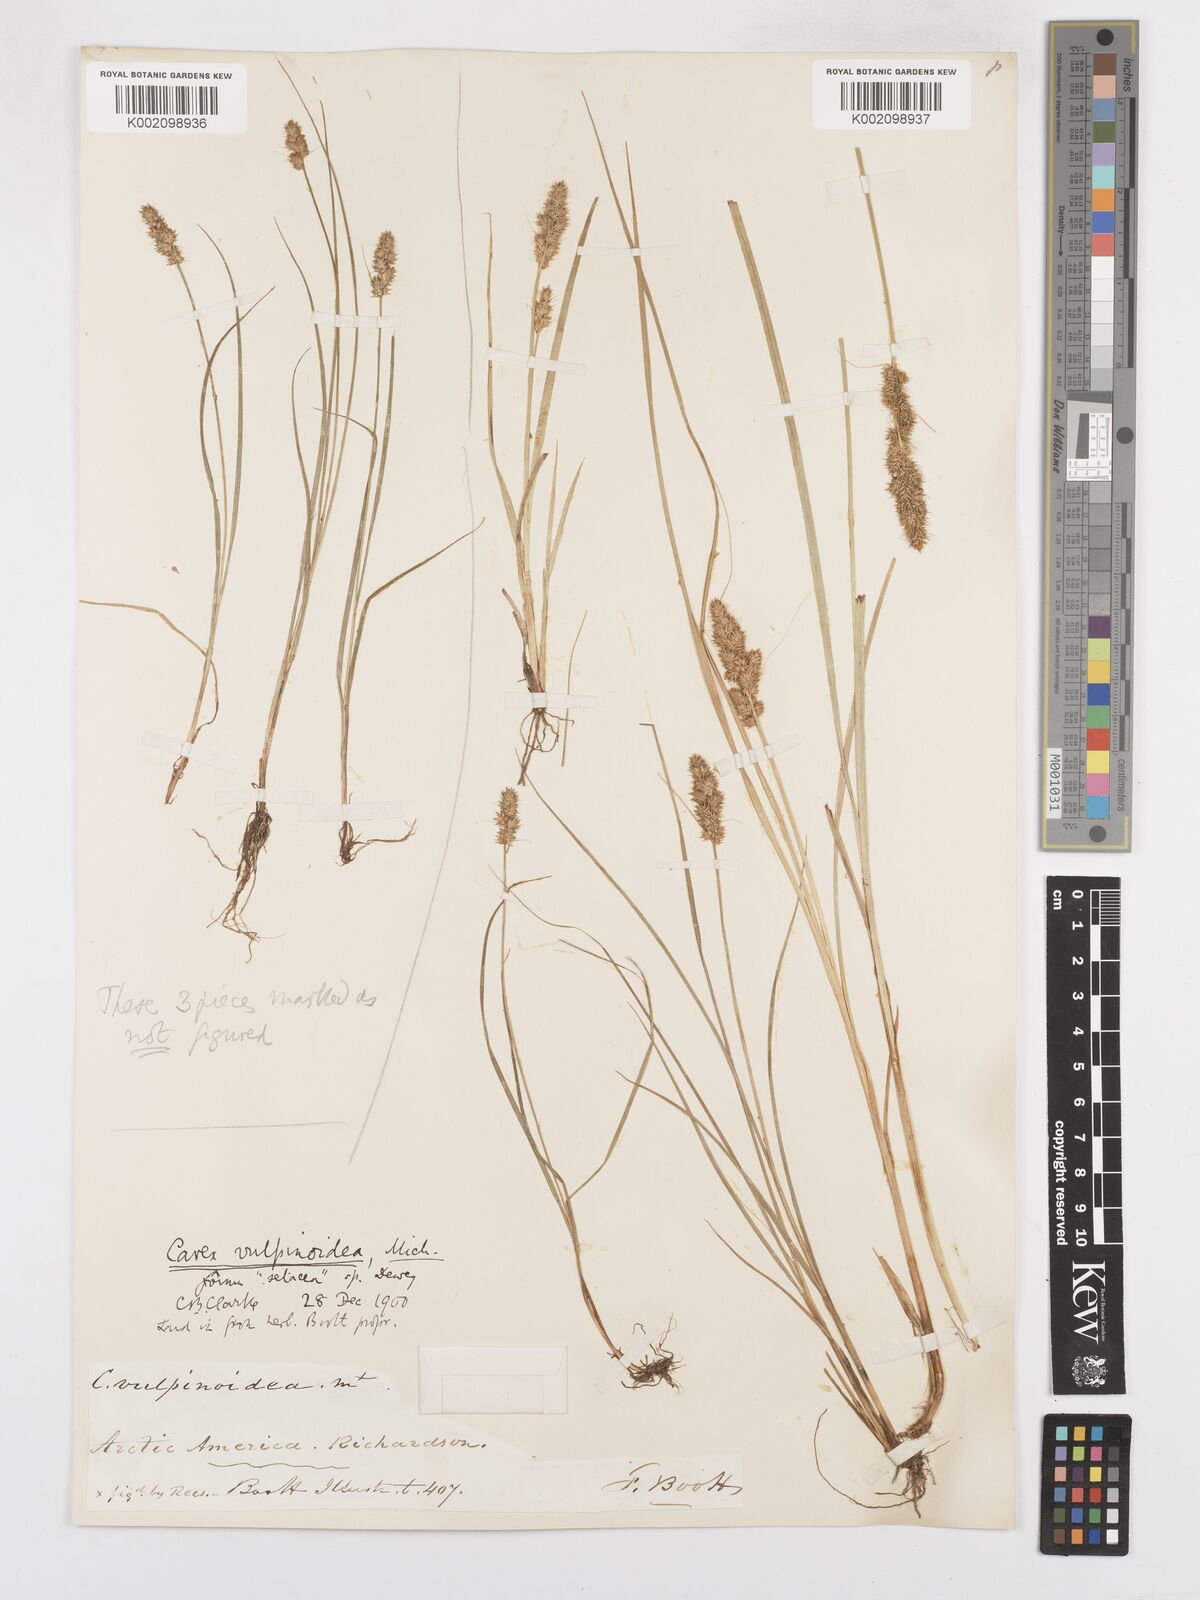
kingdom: Plantae
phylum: Tracheophyta
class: Liliopsida
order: Poales
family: Cyperaceae
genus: Carex
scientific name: Carex vulpinoidea
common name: American fox-sedge
